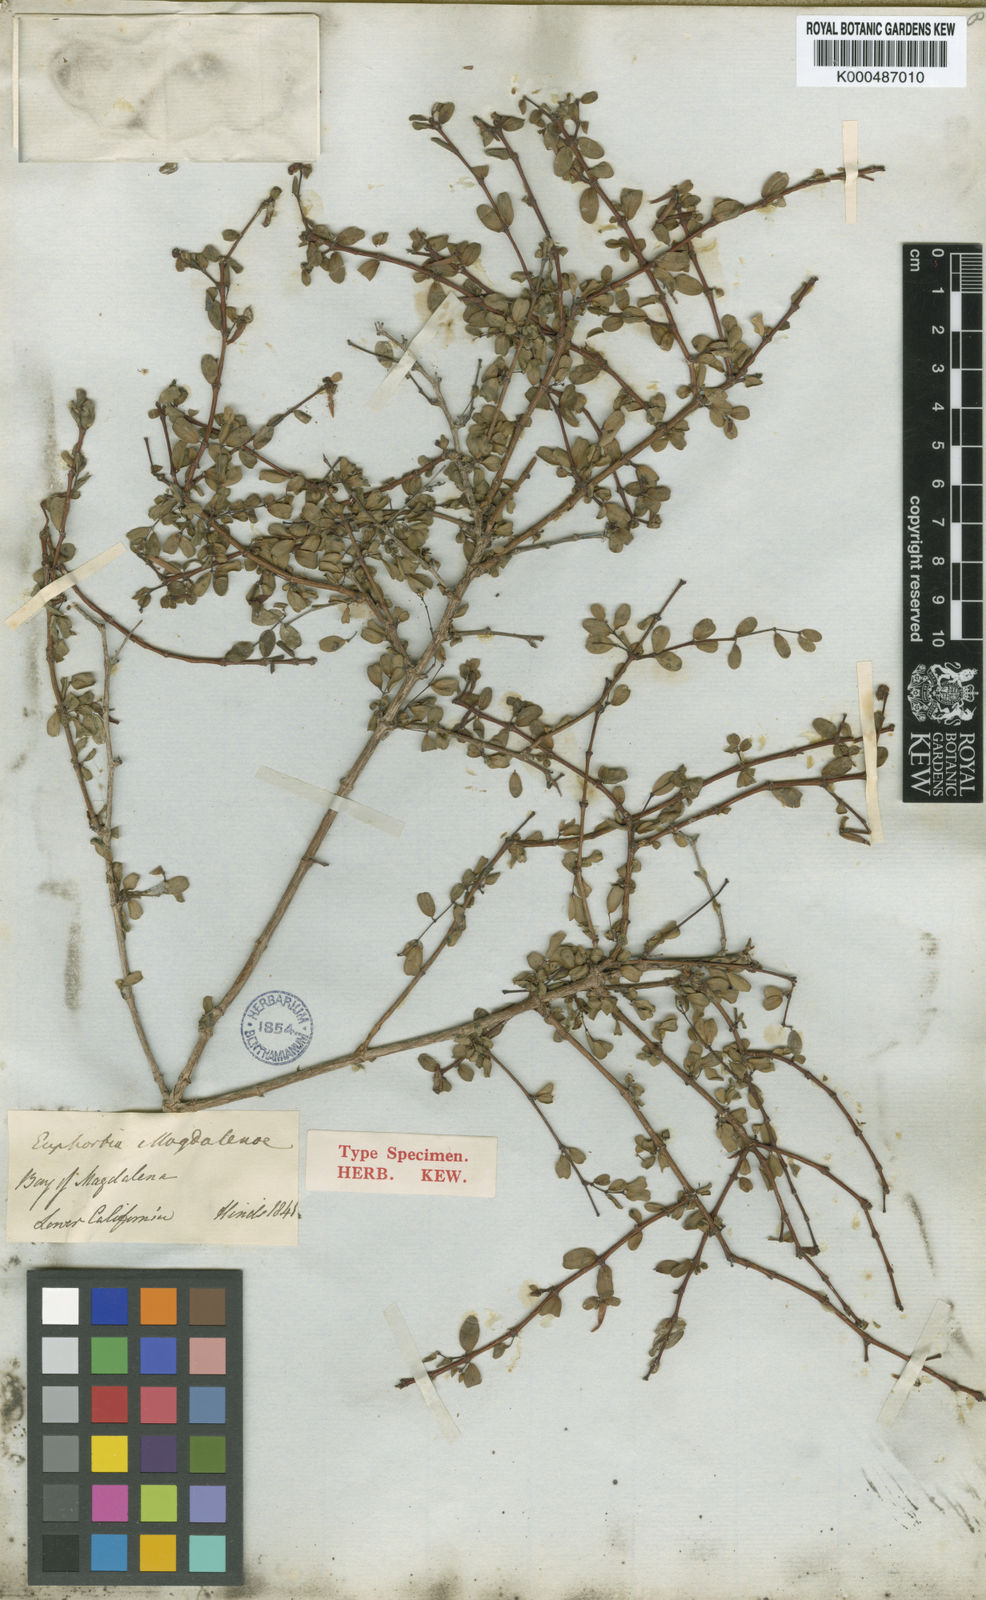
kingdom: Plantae
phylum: Tracheophyta
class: Magnoliopsida
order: Malpighiales
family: Euphorbiaceae
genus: Euphorbia
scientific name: Euphorbia magdalenae
